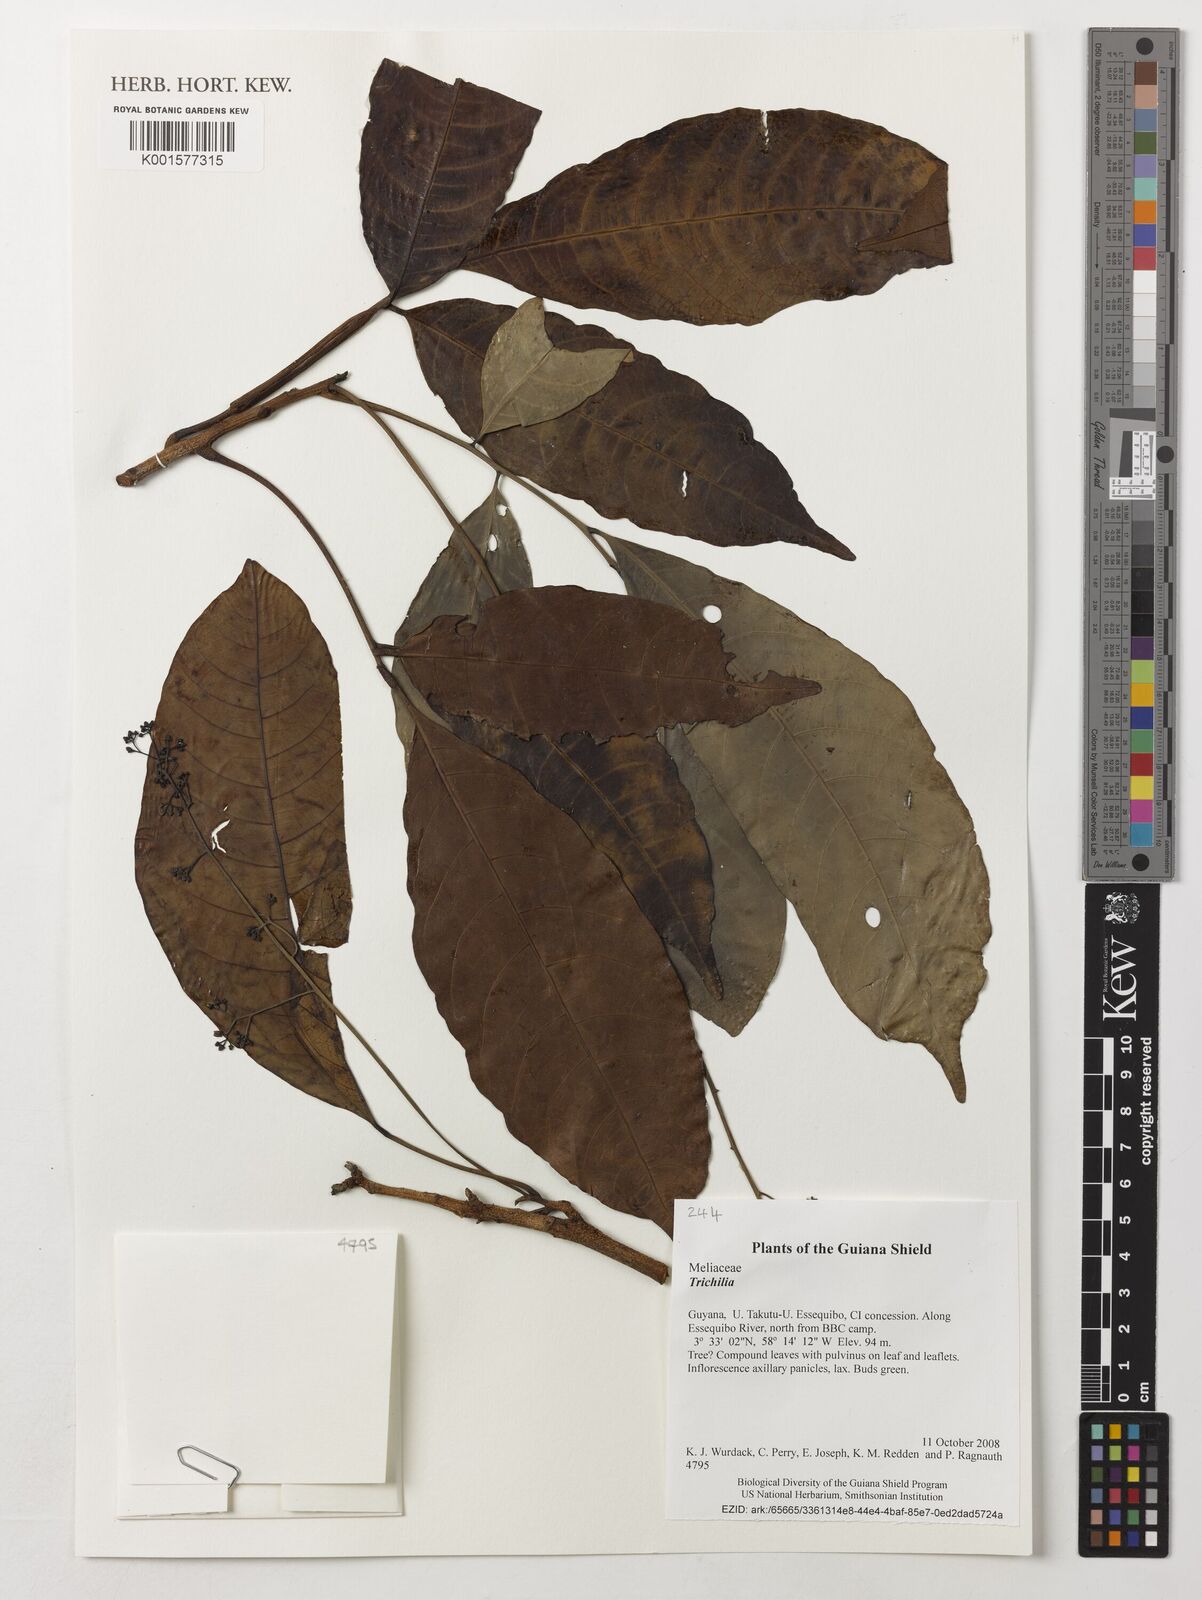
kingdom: Plantae
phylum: Tracheophyta
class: Magnoliopsida
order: Sapindales
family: Meliaceae
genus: Trichilia
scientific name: Trichilia
